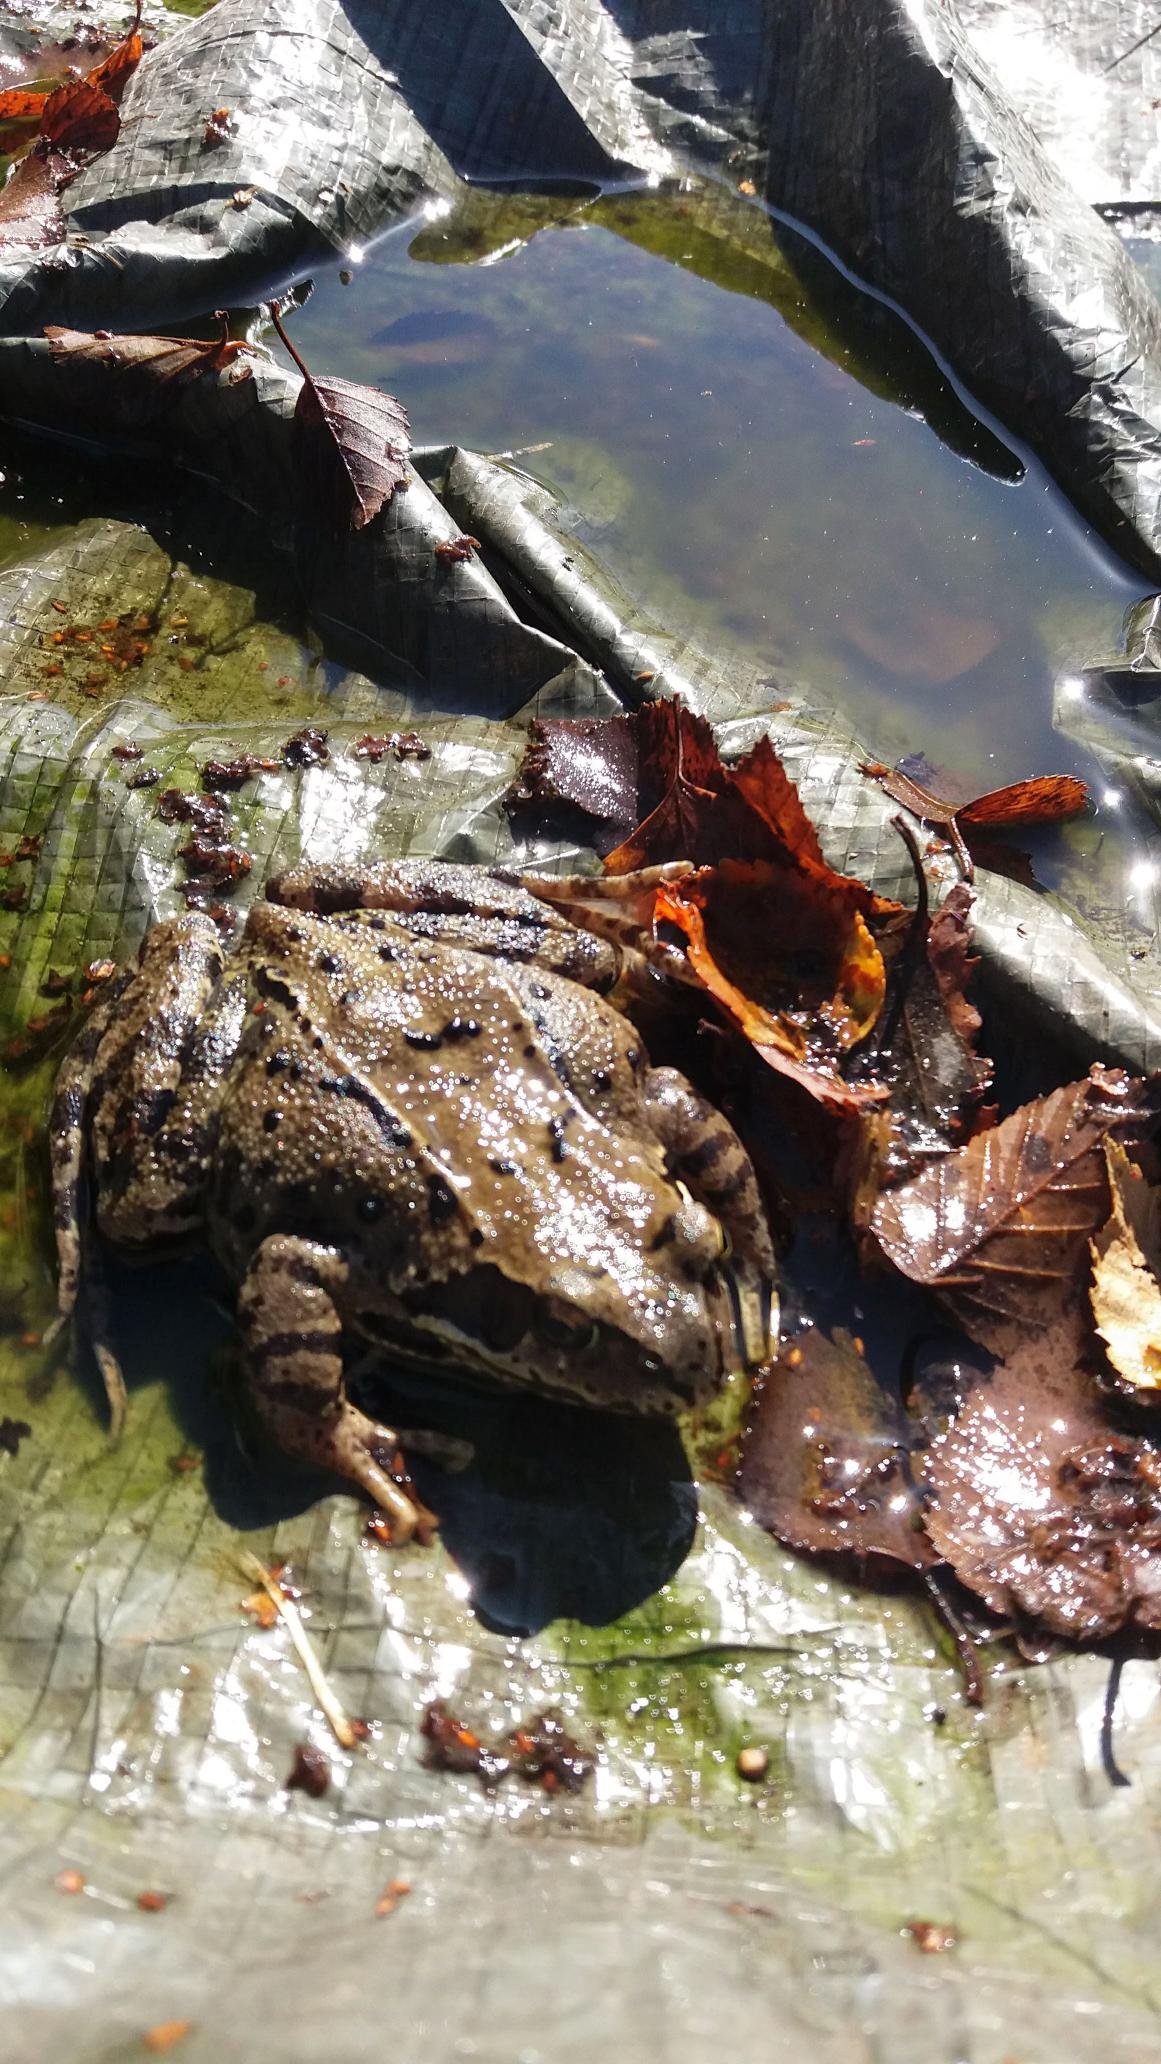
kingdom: Animalia
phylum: Chordata
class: Amphibia
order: Anura
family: Ranidae
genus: Rana
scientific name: Rana temporaria
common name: Butsnudet frø
